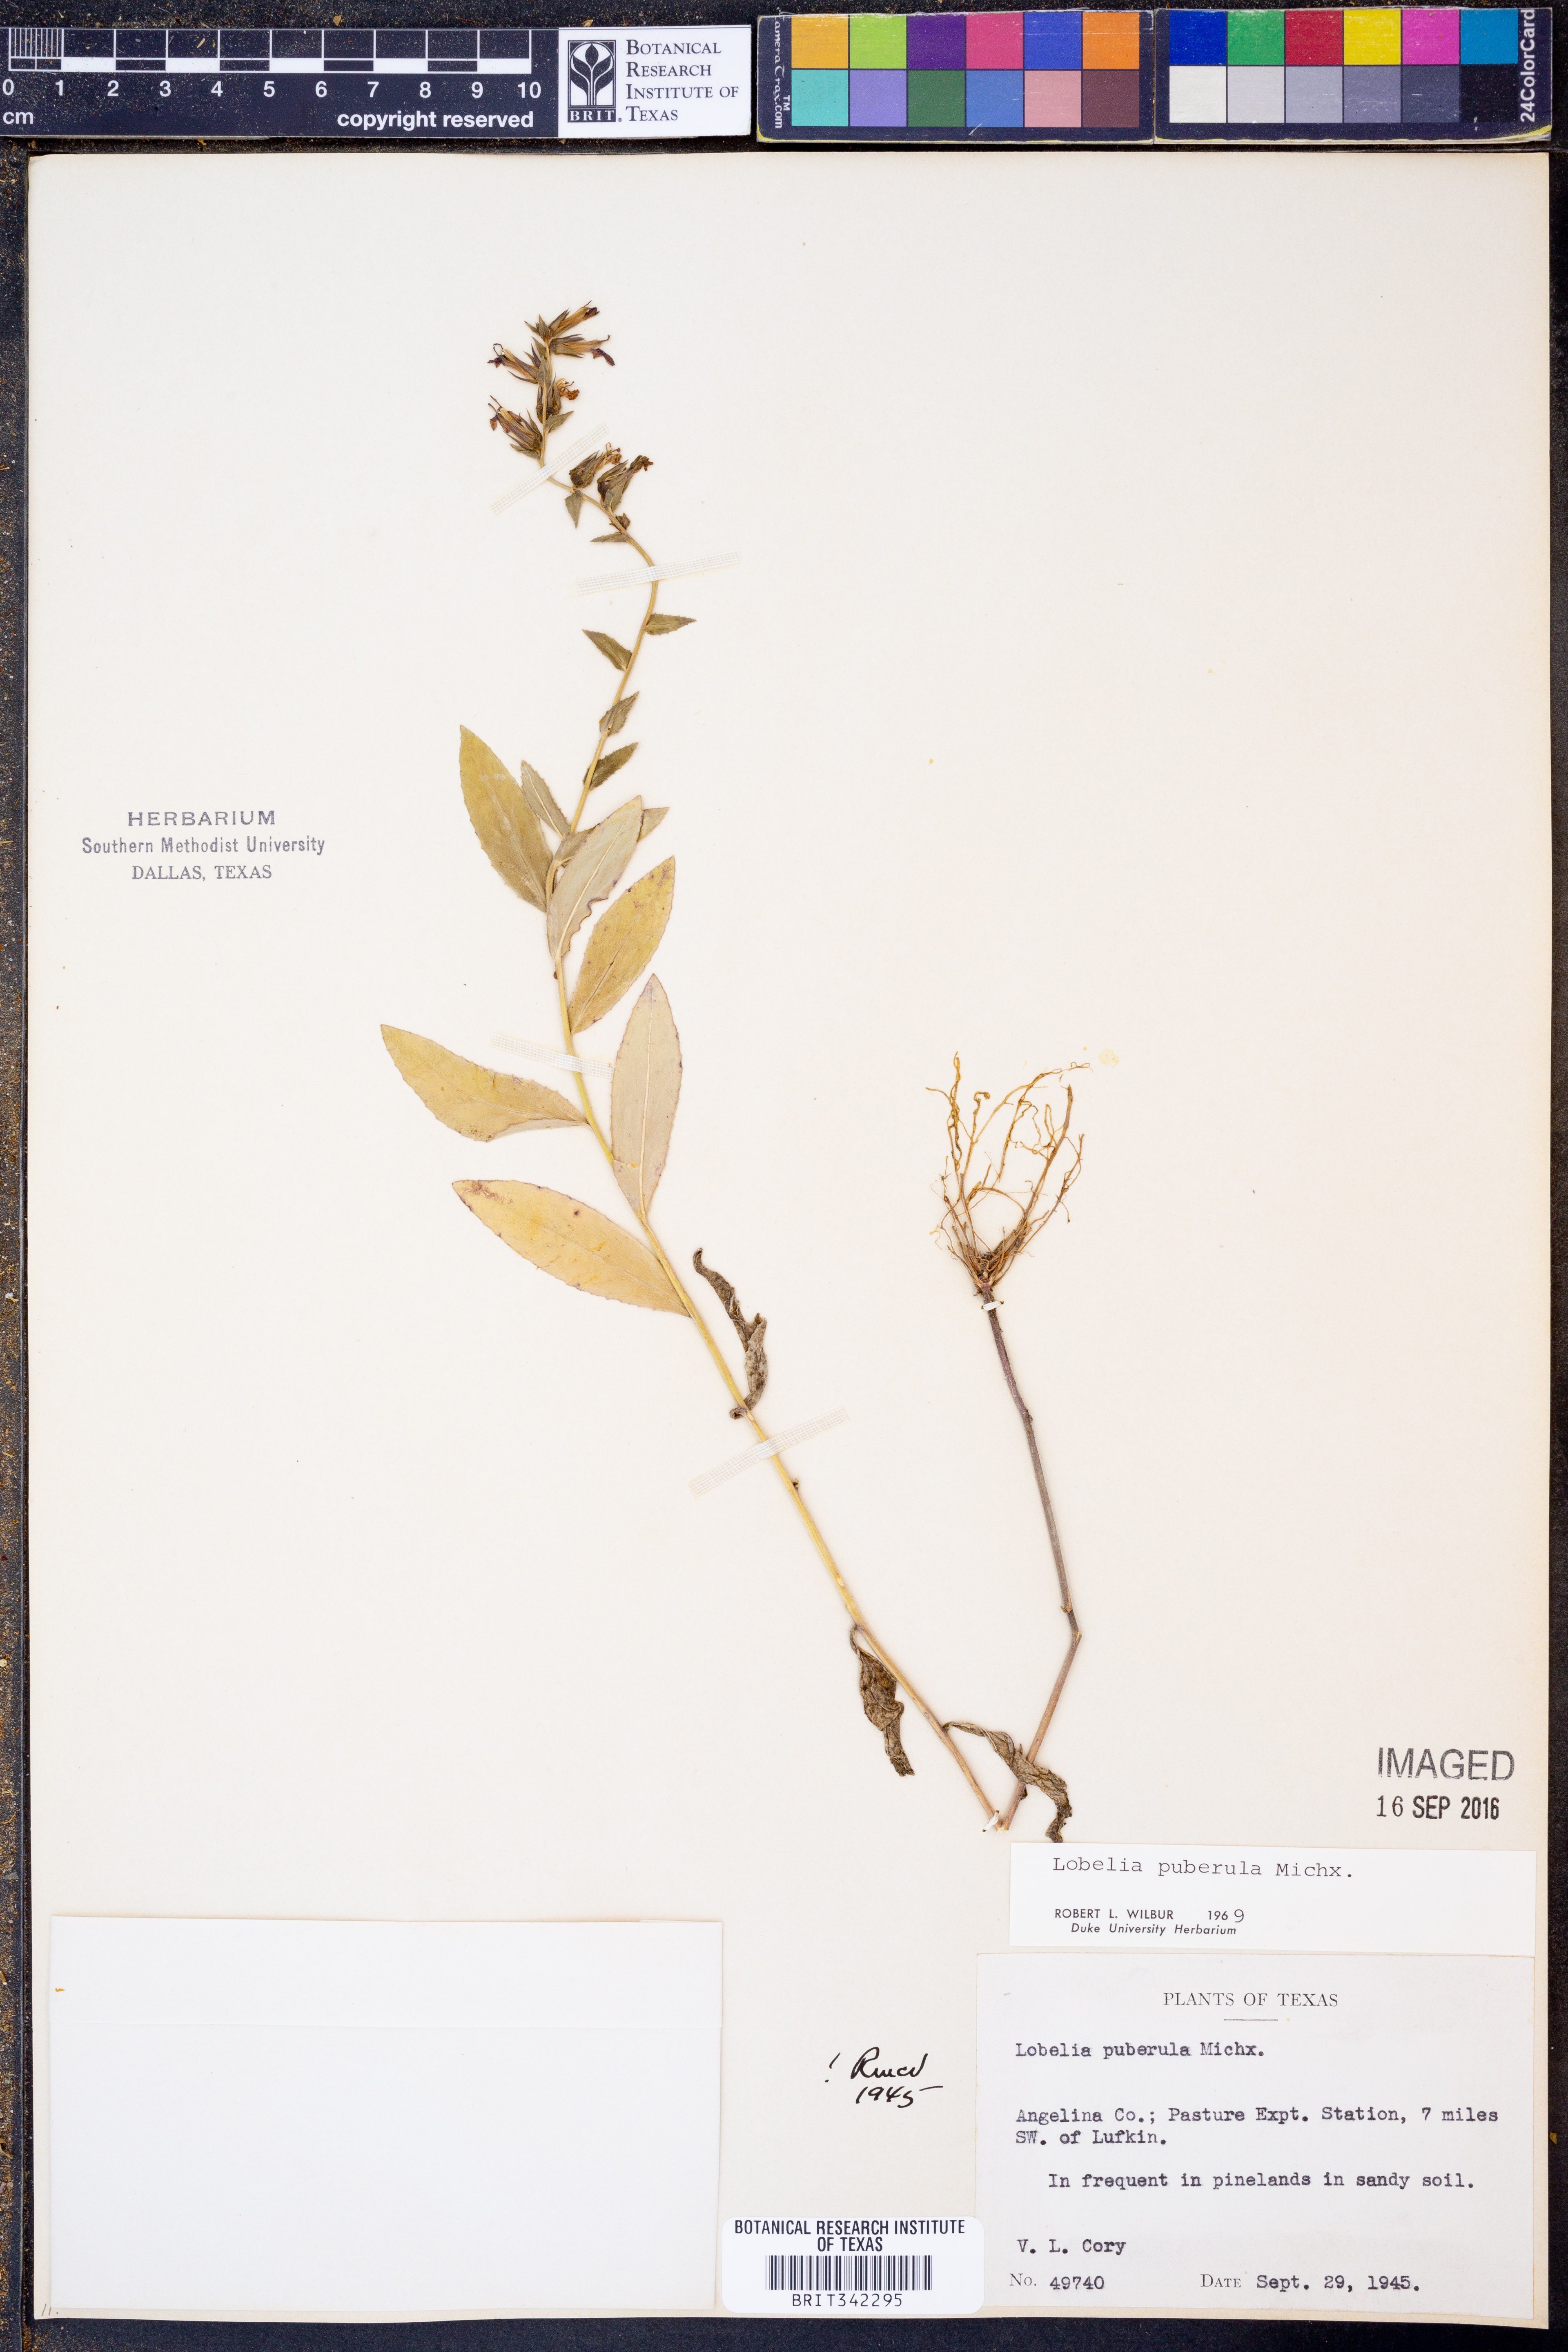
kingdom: Plantae
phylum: Tracheophyta
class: Magnoliopsida
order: Asterales
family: Campanulaceae
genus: Lobelia
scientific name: Lobelia puberula
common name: Purple dewdrop
